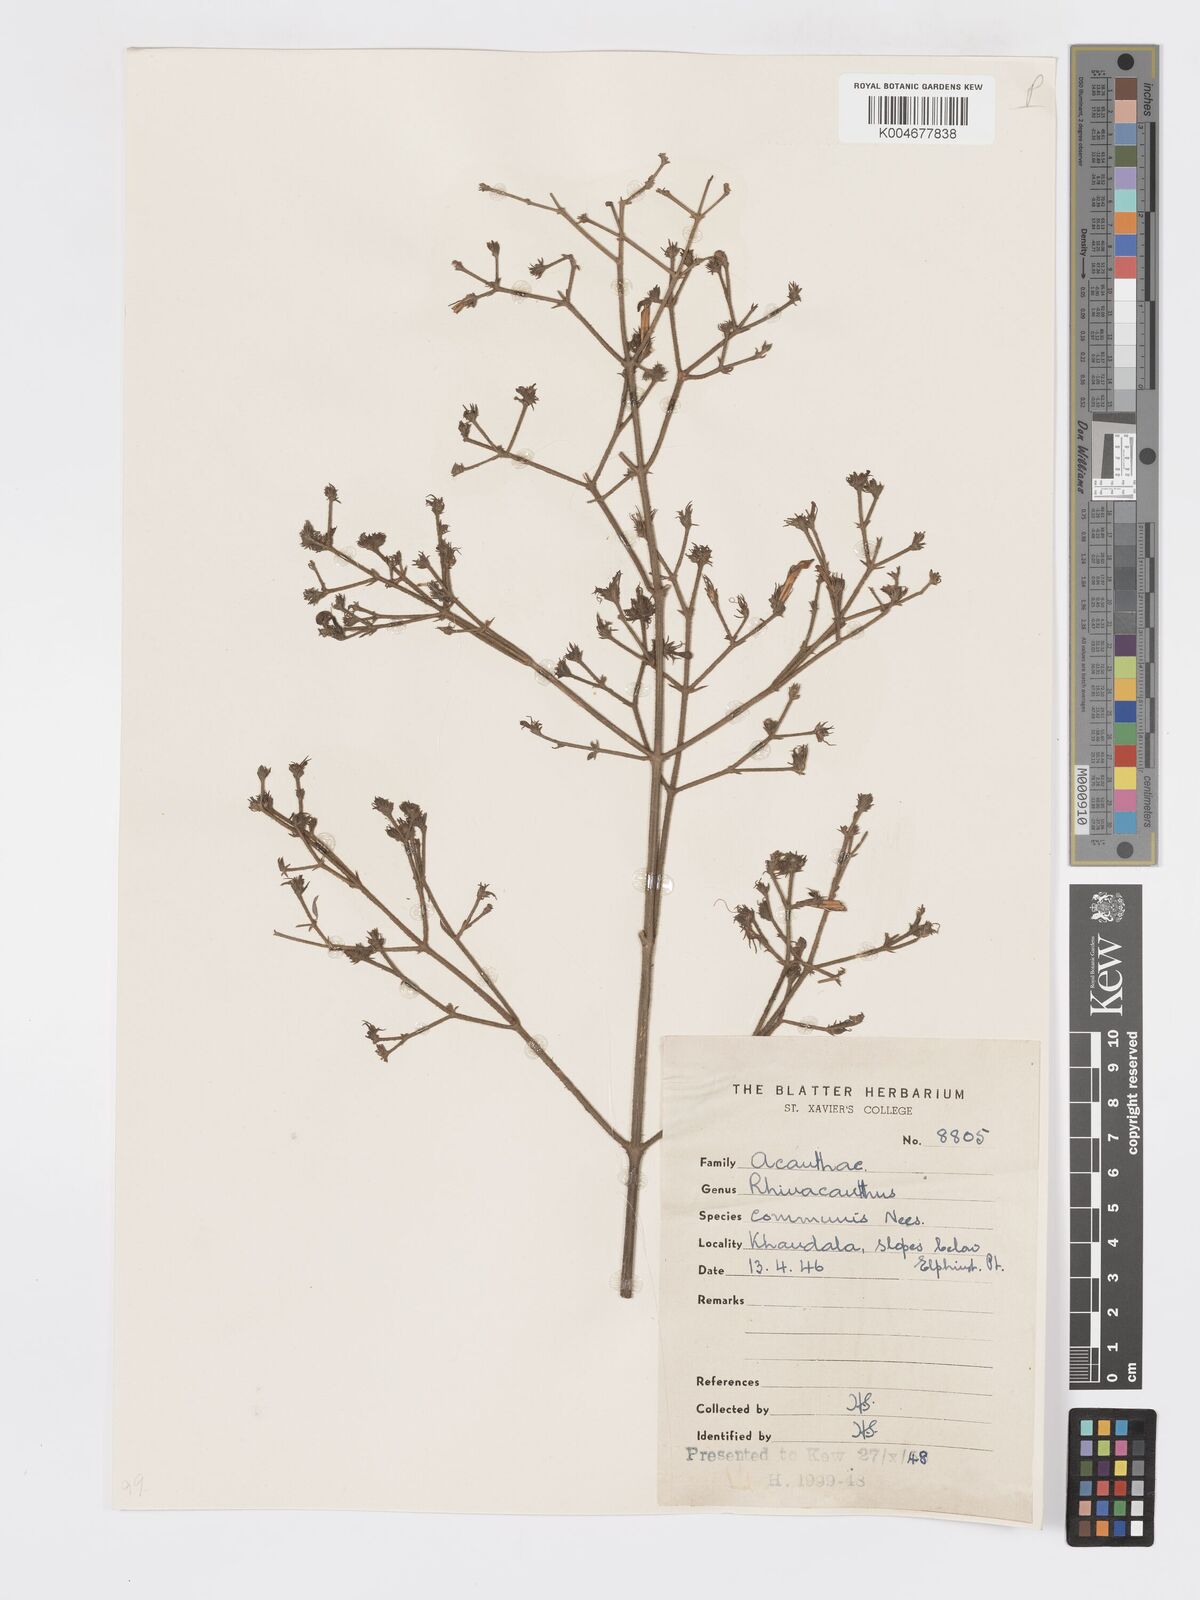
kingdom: Plantae
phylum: Tracheophyta
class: Magnoliopsida
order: Lamiales
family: Acanthaceae
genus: Rhinacanthus
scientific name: Rhinacanthus nasutus
